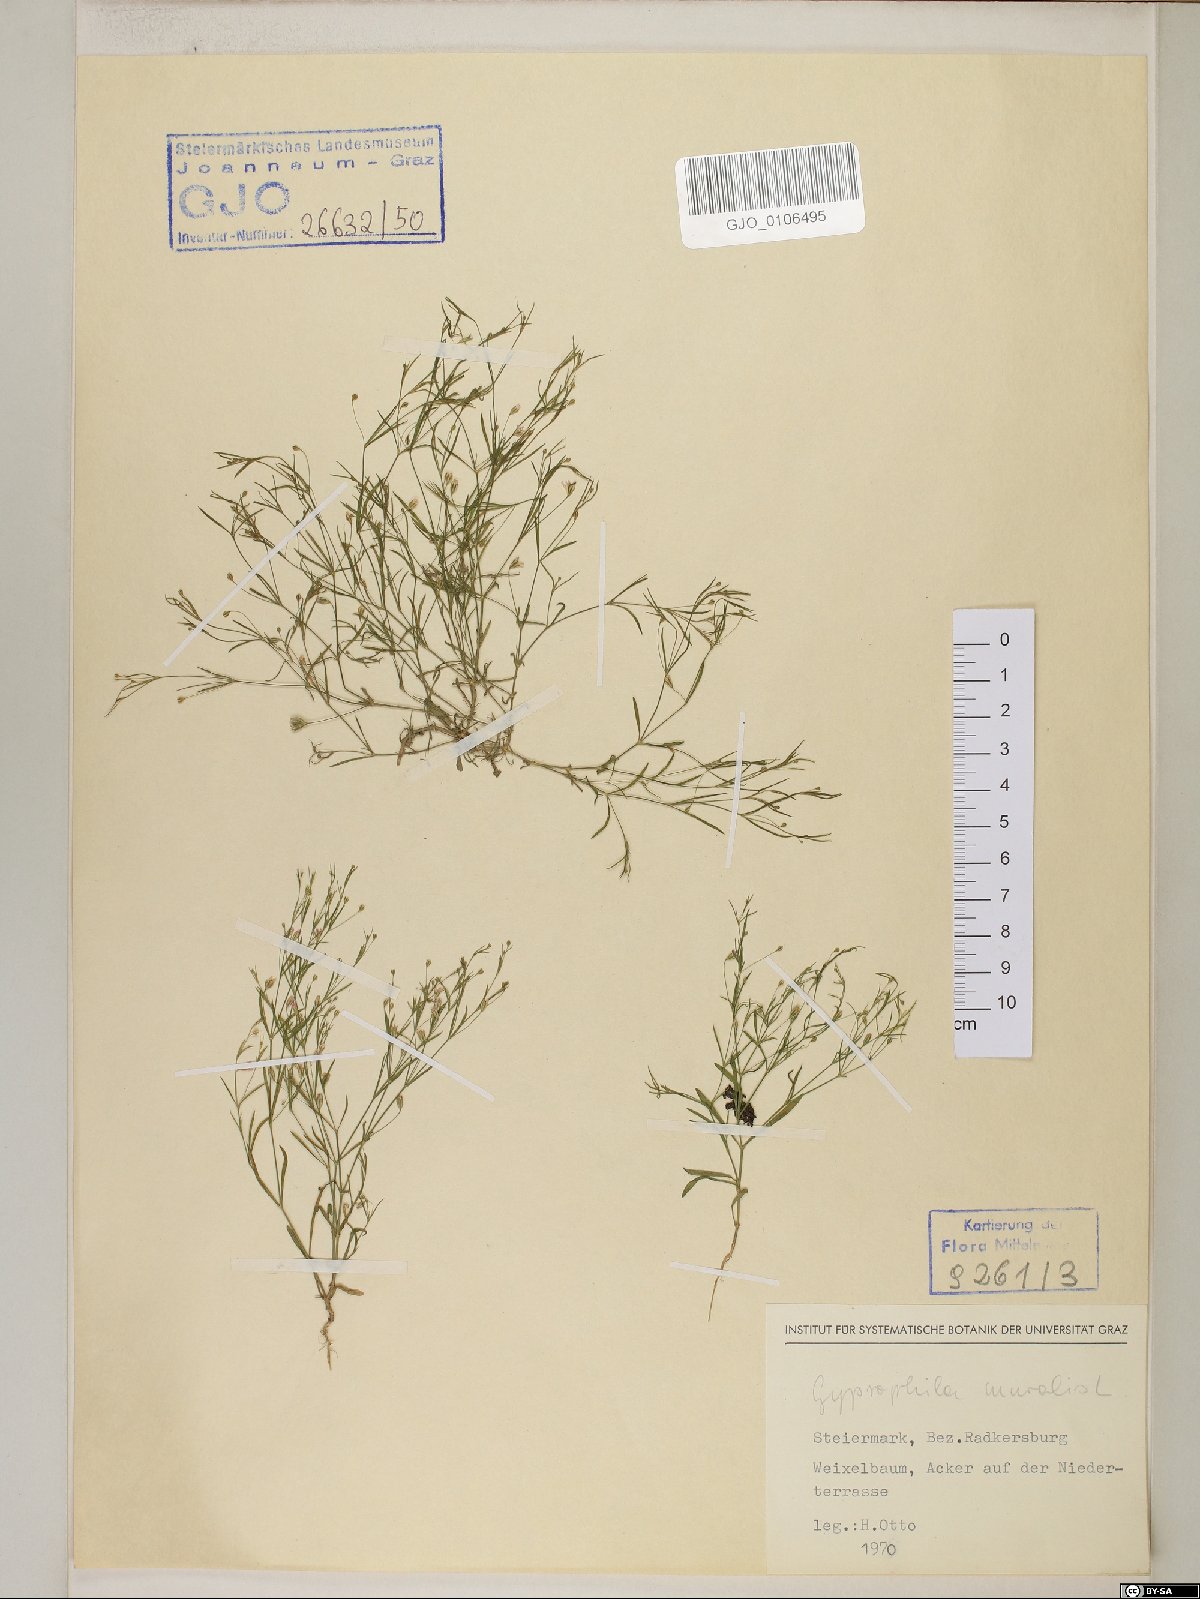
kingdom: Plantae
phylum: Tracheophyta
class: Magnoliopsida
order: Caryophyllales
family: Caryophyllaceae
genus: Psammophiliella
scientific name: Psammophiliella muralis
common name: Cushion baby's-breath
